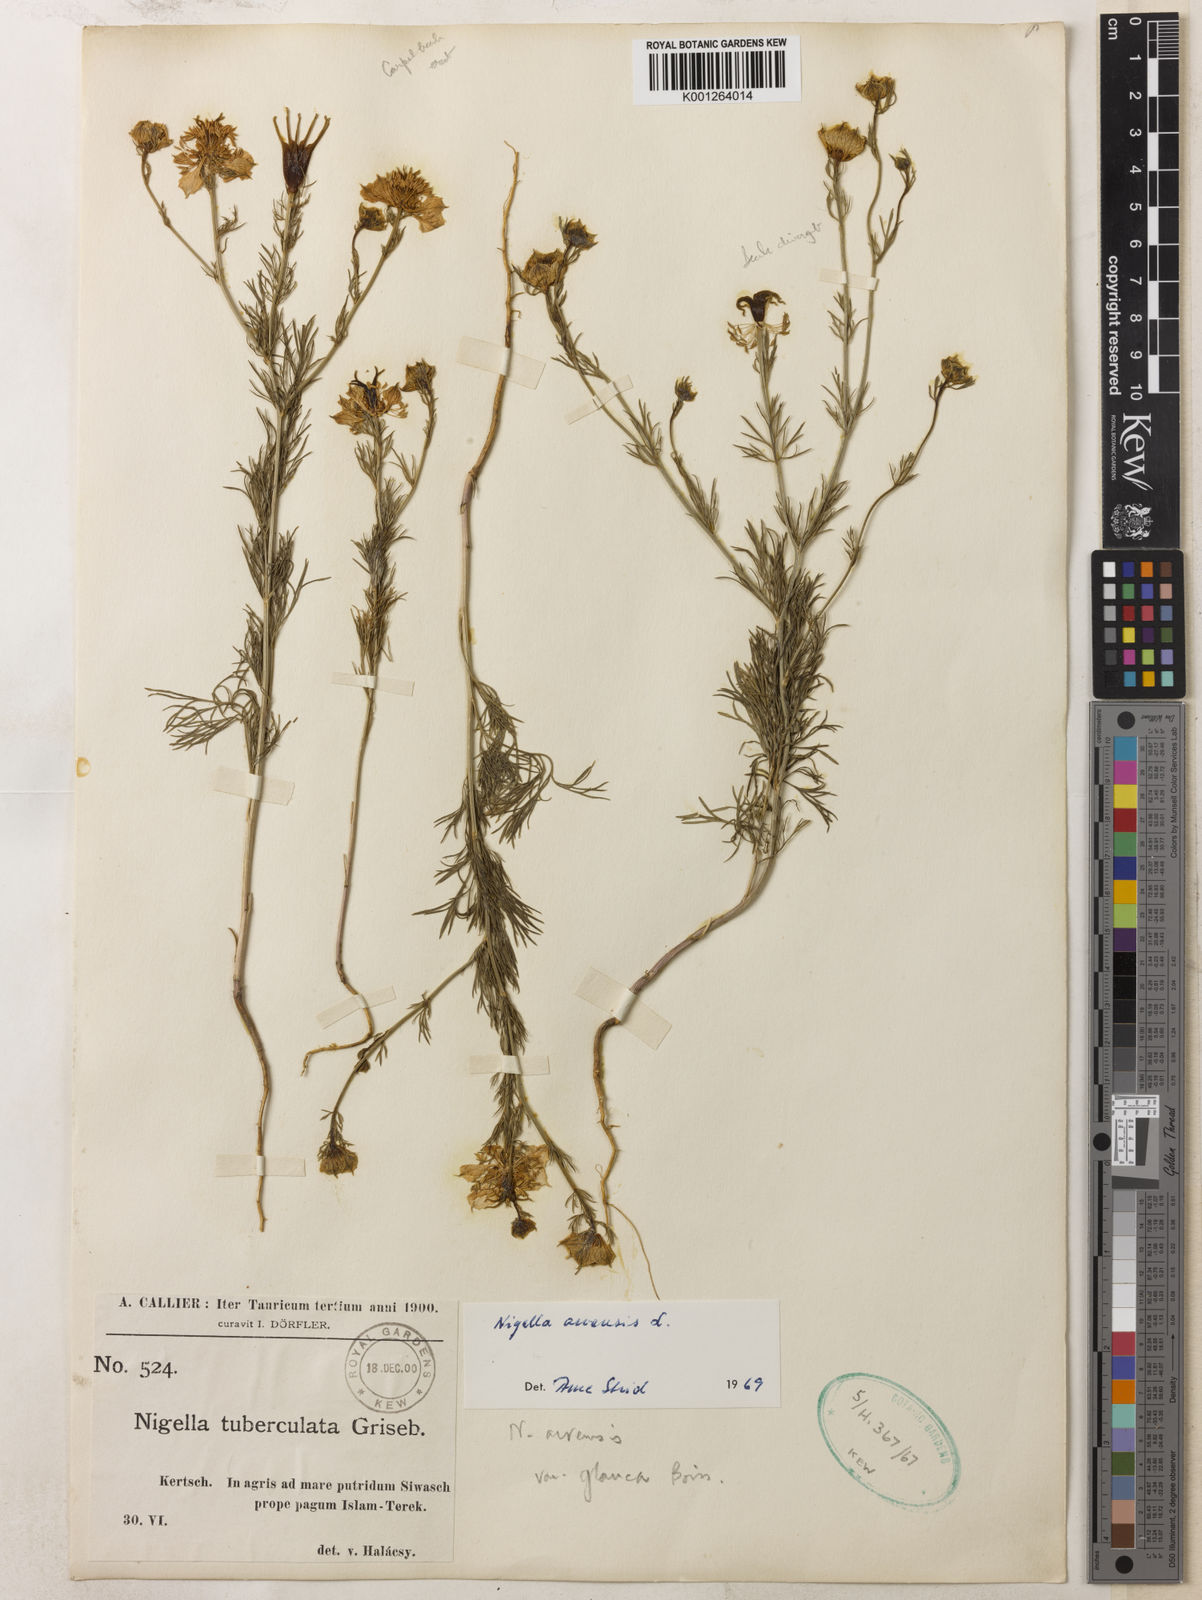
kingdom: Plantae
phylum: Tracheophyta
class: Magnoliopsida
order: Ranunculales
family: Ranunculaceae
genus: Nigella
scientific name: Nigella arvensis
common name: Wild fennel-flower
